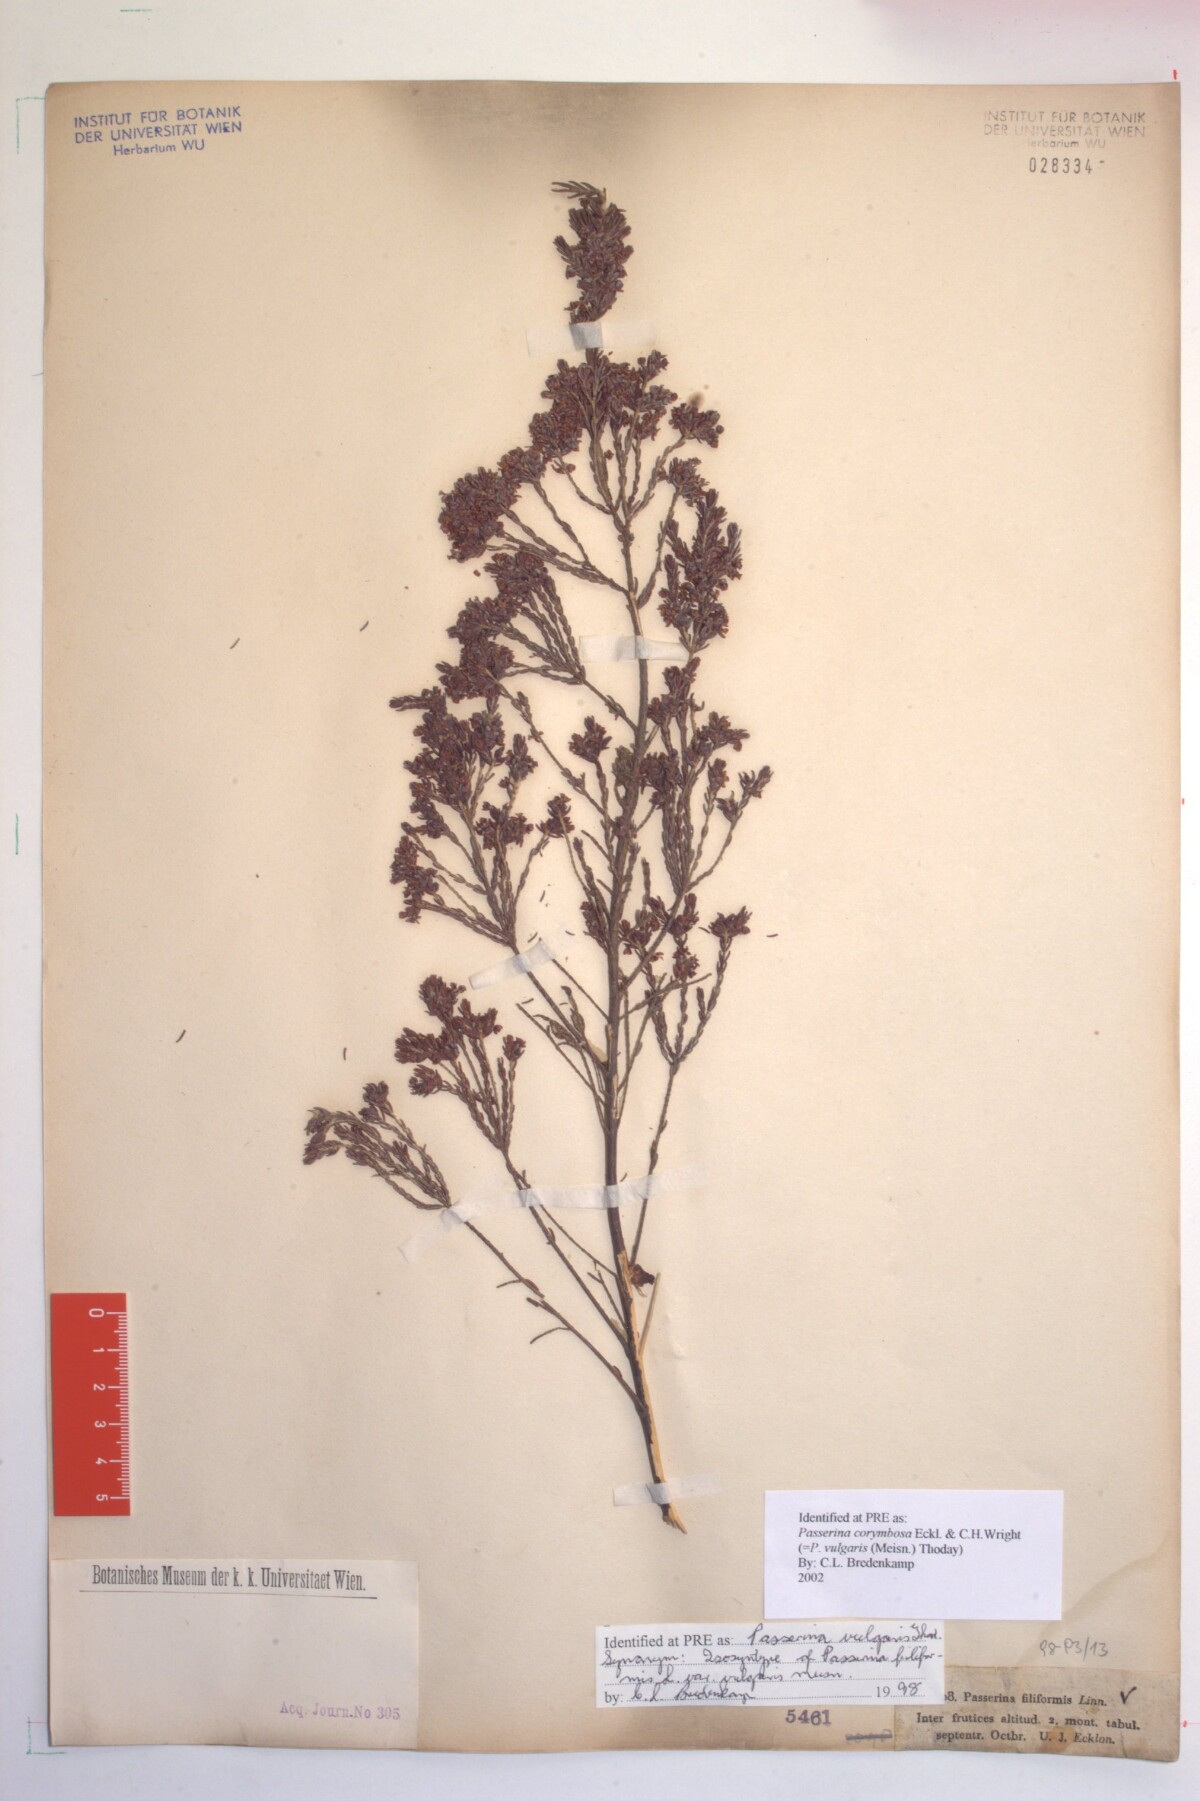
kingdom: Plantae
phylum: Tracheophyta
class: Magnoliopsida
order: Malvales
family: Thymelaeaceae
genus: Passerina
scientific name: Passerina corymbosa
